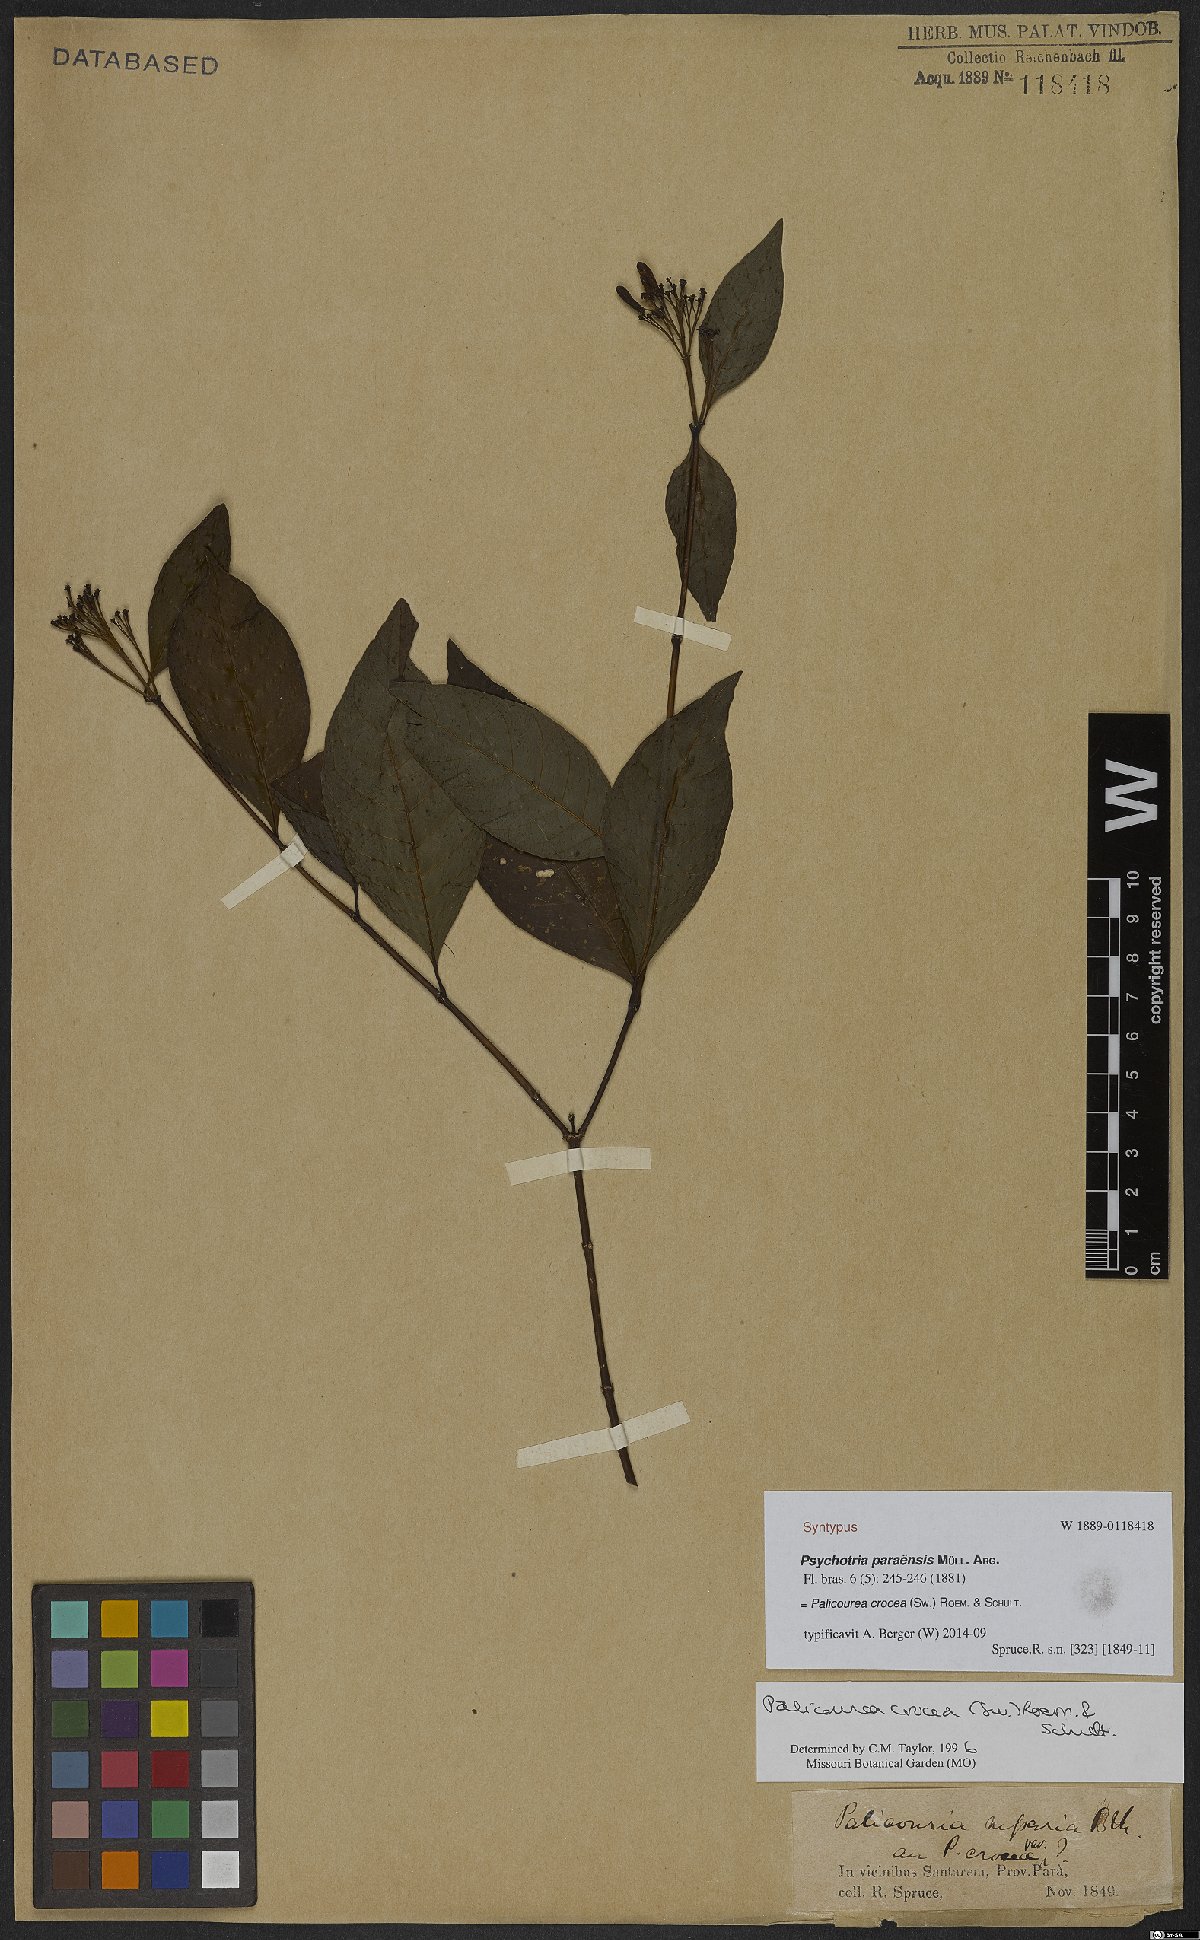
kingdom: Plantae
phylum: Tracheophyta
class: Magnoliopsida
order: Gentianales
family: Rubiaceae
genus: Palicourea
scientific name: Palicourea crocea
